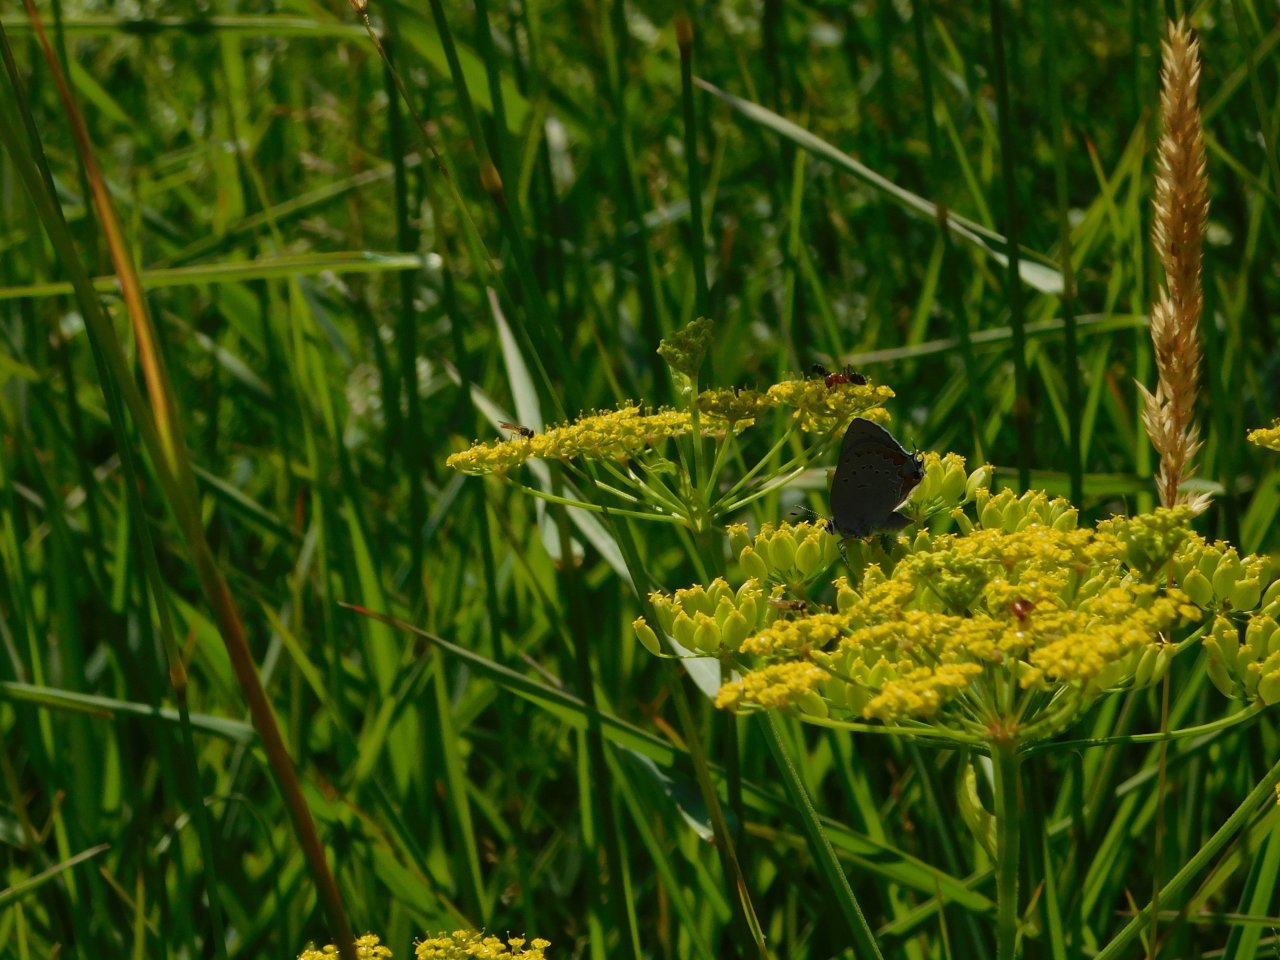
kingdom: Animalia
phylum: Arthropoda
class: Insecta
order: Lepidoptera
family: Lycaenidae
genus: Strymon
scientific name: Strymon acadica
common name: Acadian Hairstreak
